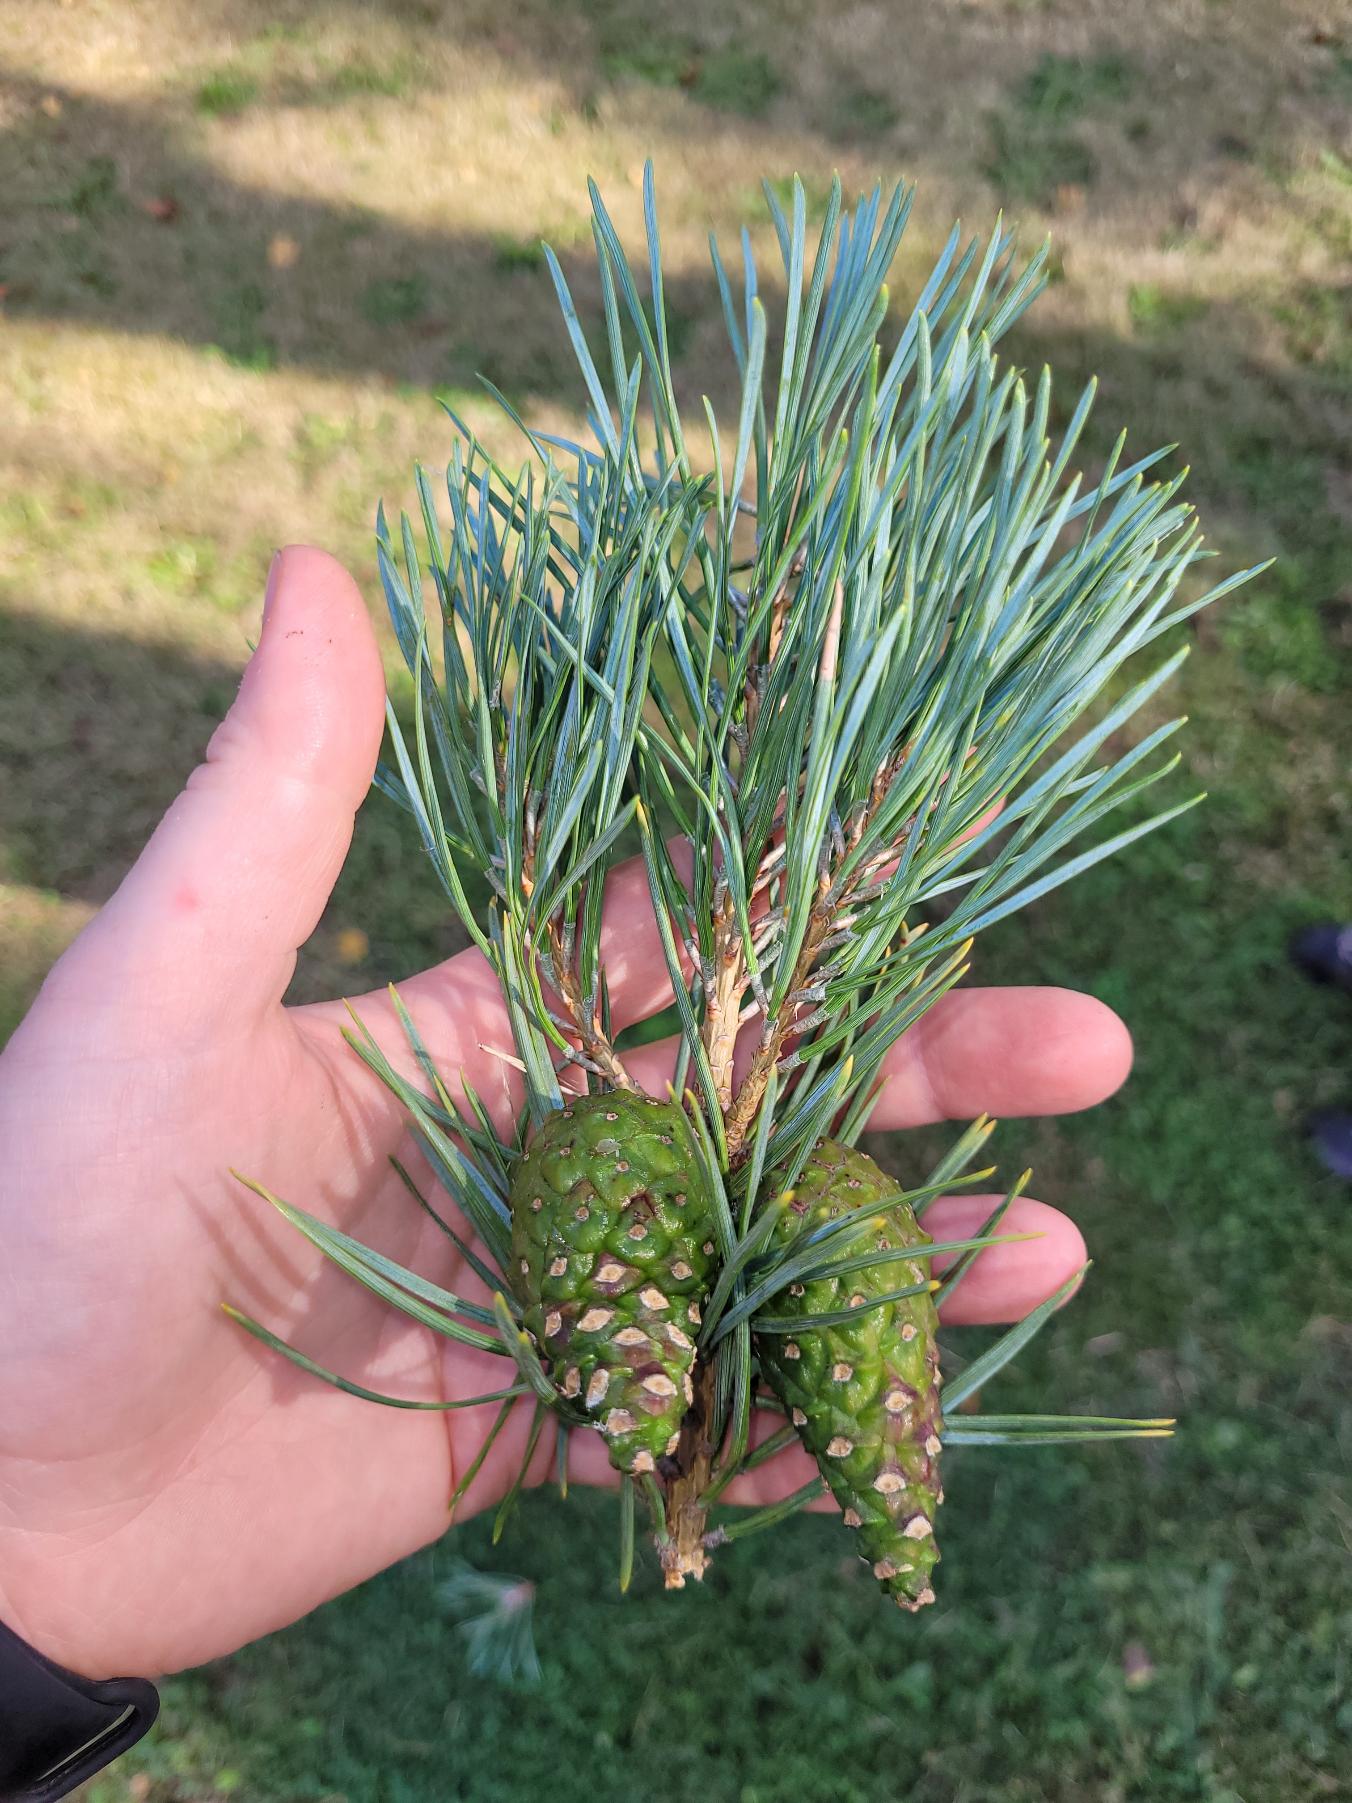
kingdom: Plantae
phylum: Tracheophyta
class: Pinopsida
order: Pinales
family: Pinaceae
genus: Pinus
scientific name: Pinus sylvestris
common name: Skov-fyr
